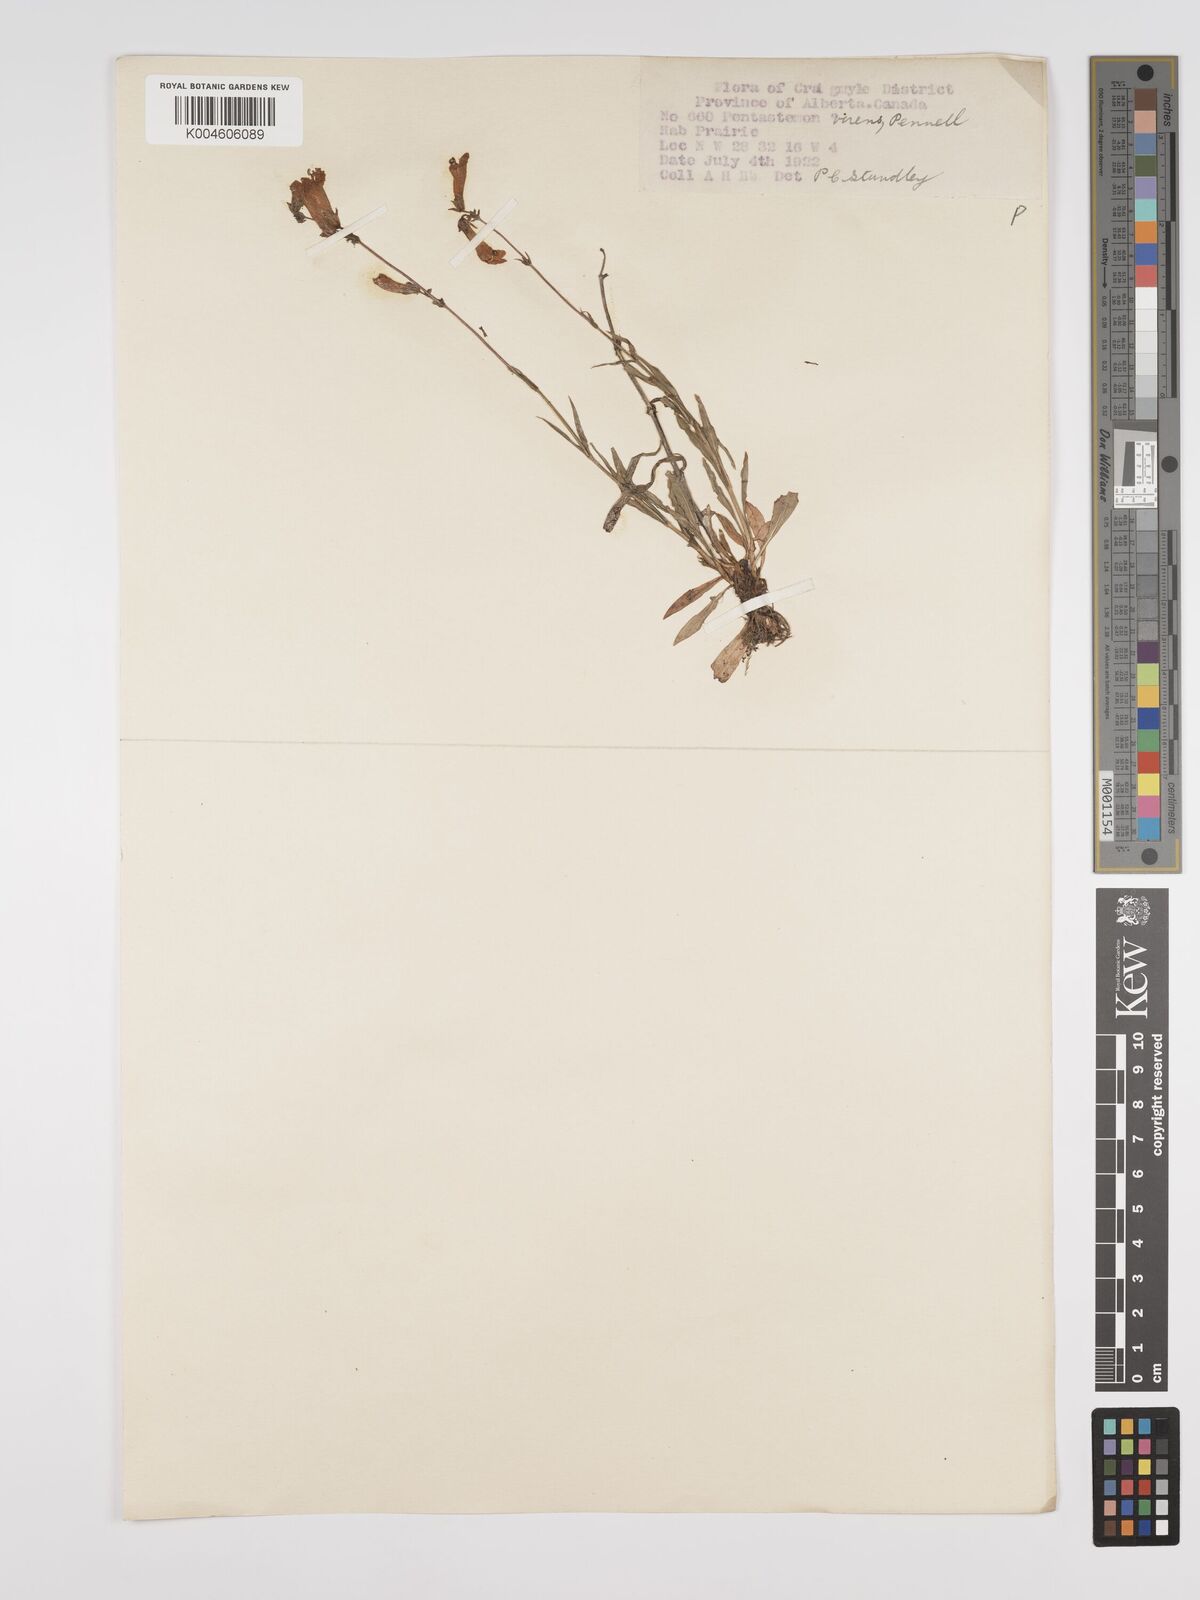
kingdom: Plantae
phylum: Tracheophyta
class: Magnoliopsida
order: Lamiales
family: Plantaginaceae
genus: Penstemon
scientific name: Penstemon virens
